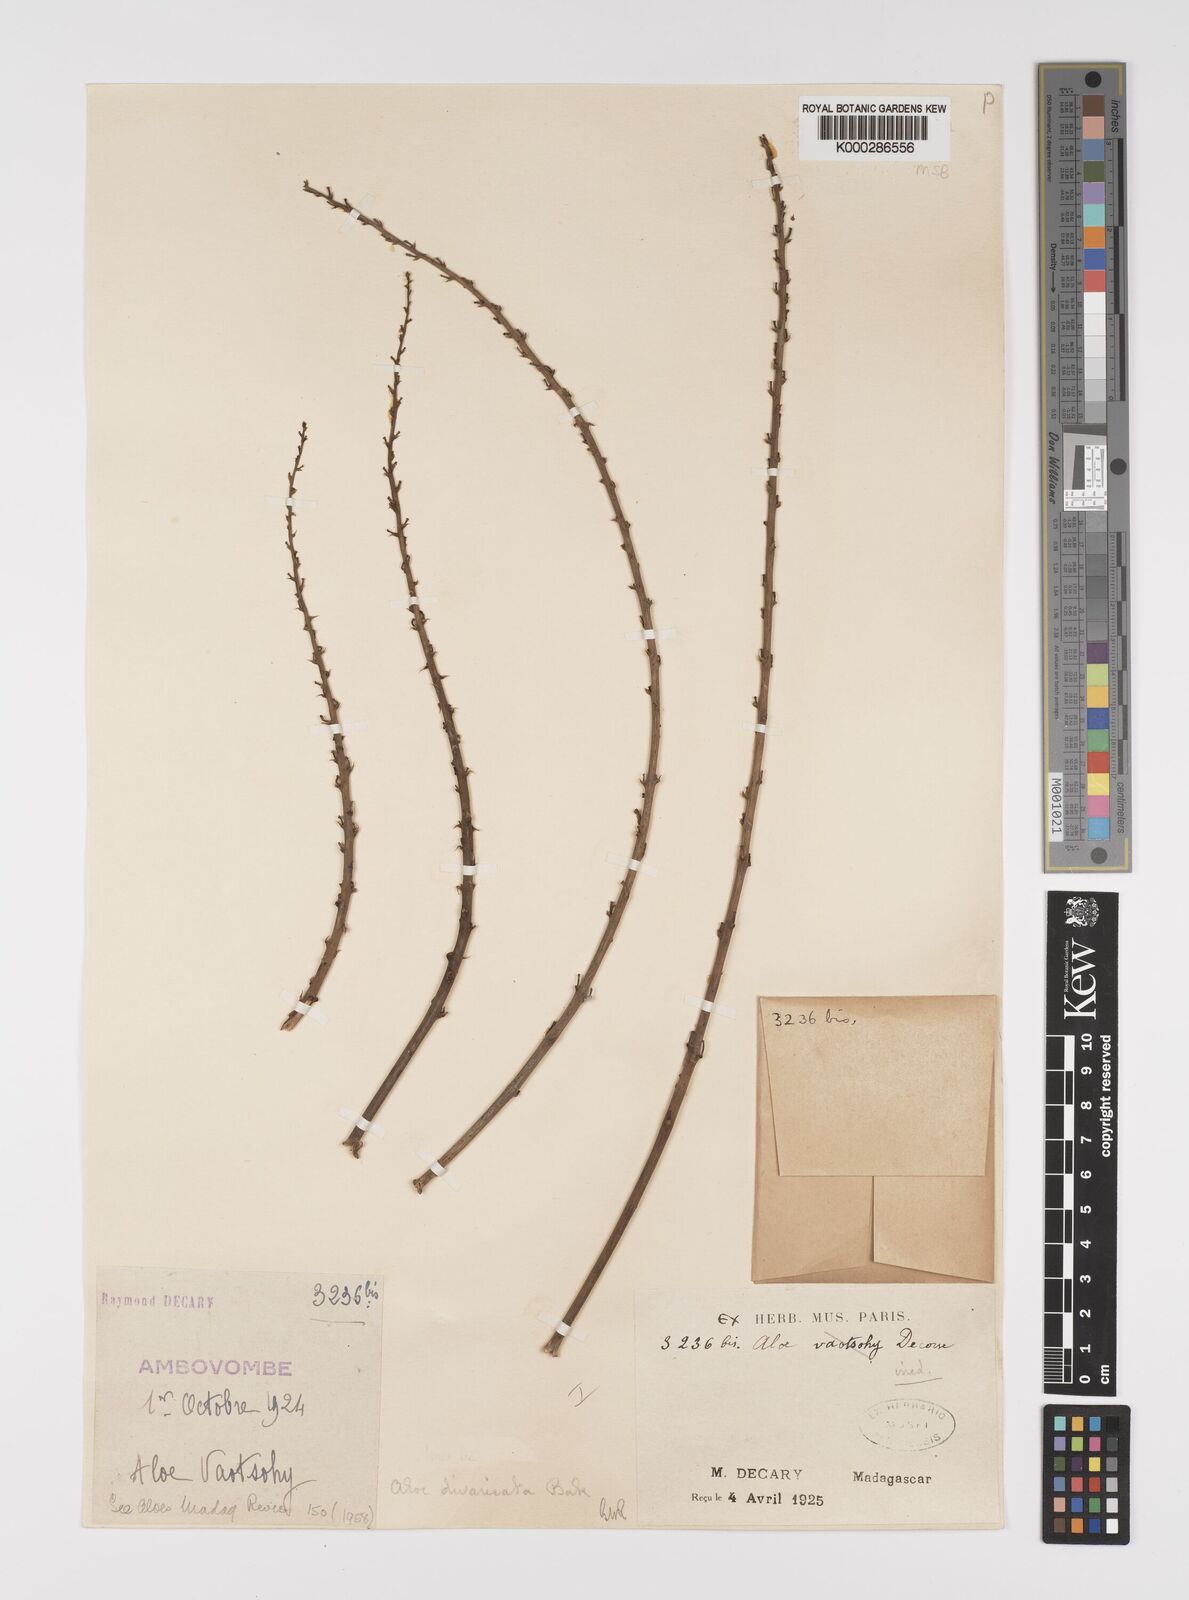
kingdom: Plantae
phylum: Tracheophyta
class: Liliopsida
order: Asparagales
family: Asphodelaceae
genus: Aloe
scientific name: Aloe divaricata
